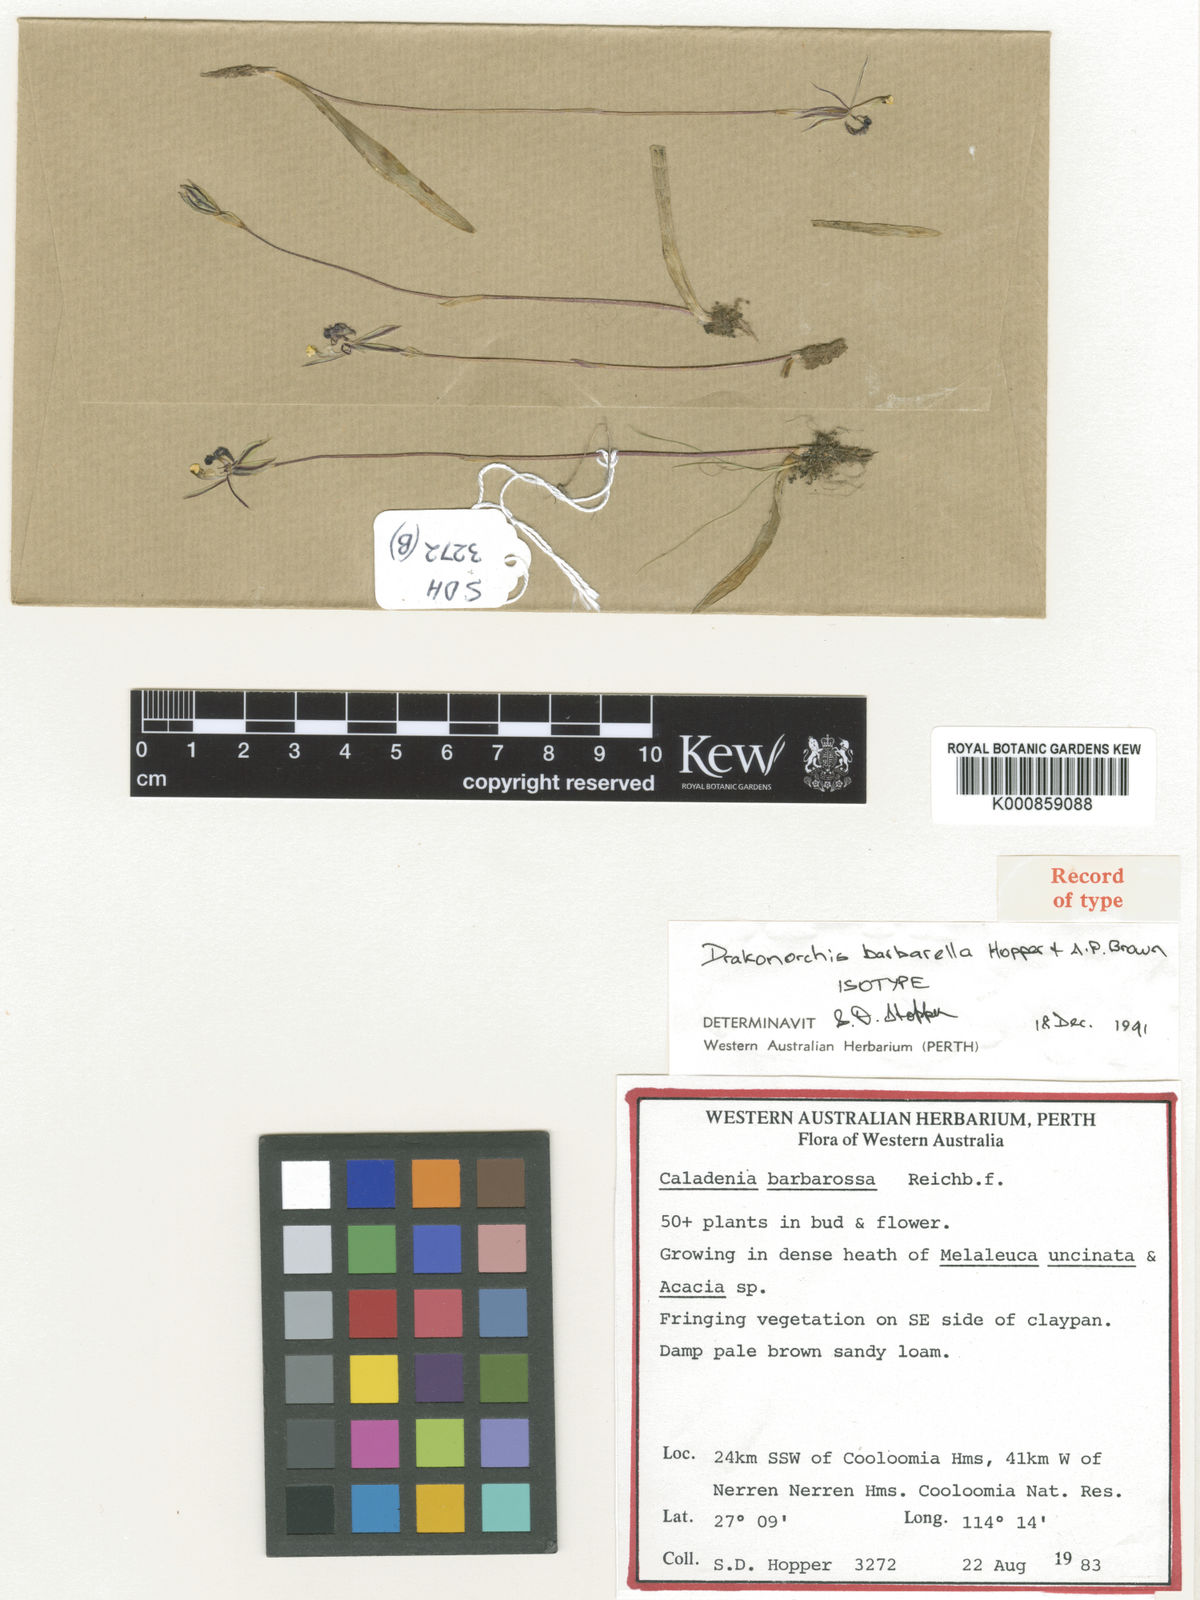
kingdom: Plantae
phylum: Tracheophyta
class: Liliopsida
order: Asparagales
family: Orchidaceae
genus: Caladenia
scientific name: Caladenia barbarella
